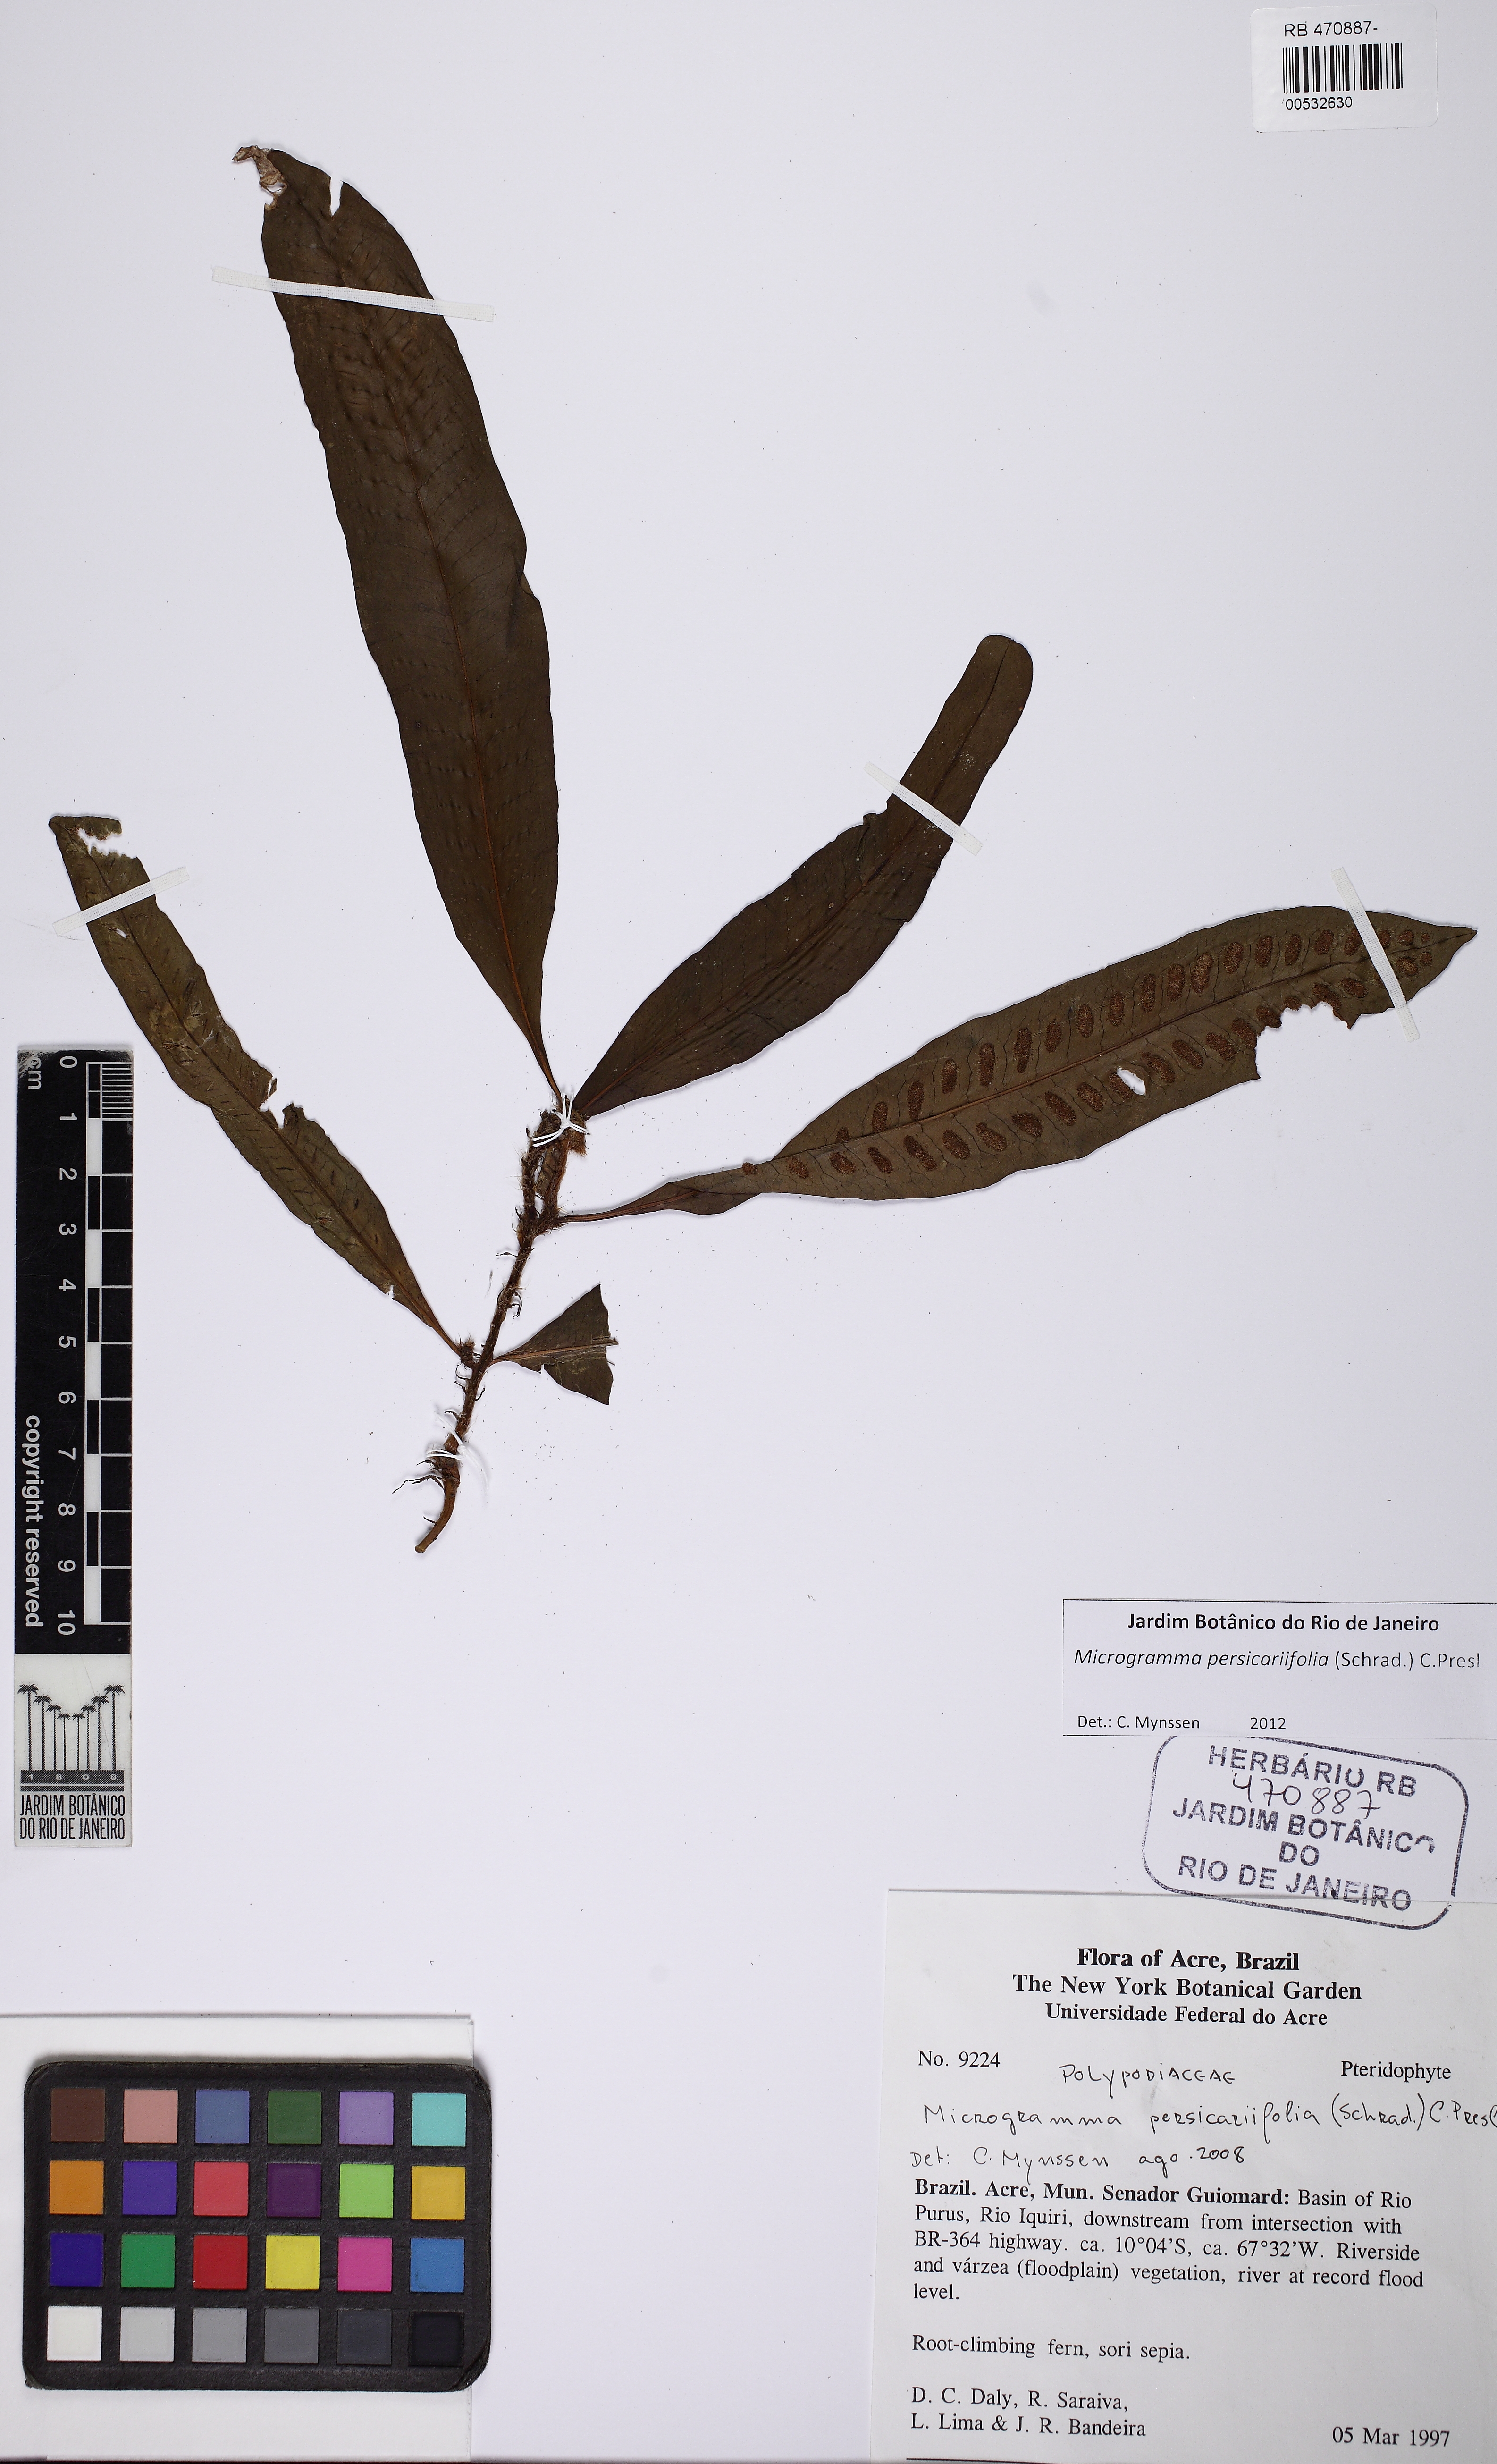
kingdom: Plantae
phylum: Tracheophyta
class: Polypodiopsida
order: Polypodiales
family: Polypodiaceae
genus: Microgramma
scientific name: Microgramma persicariifolia
